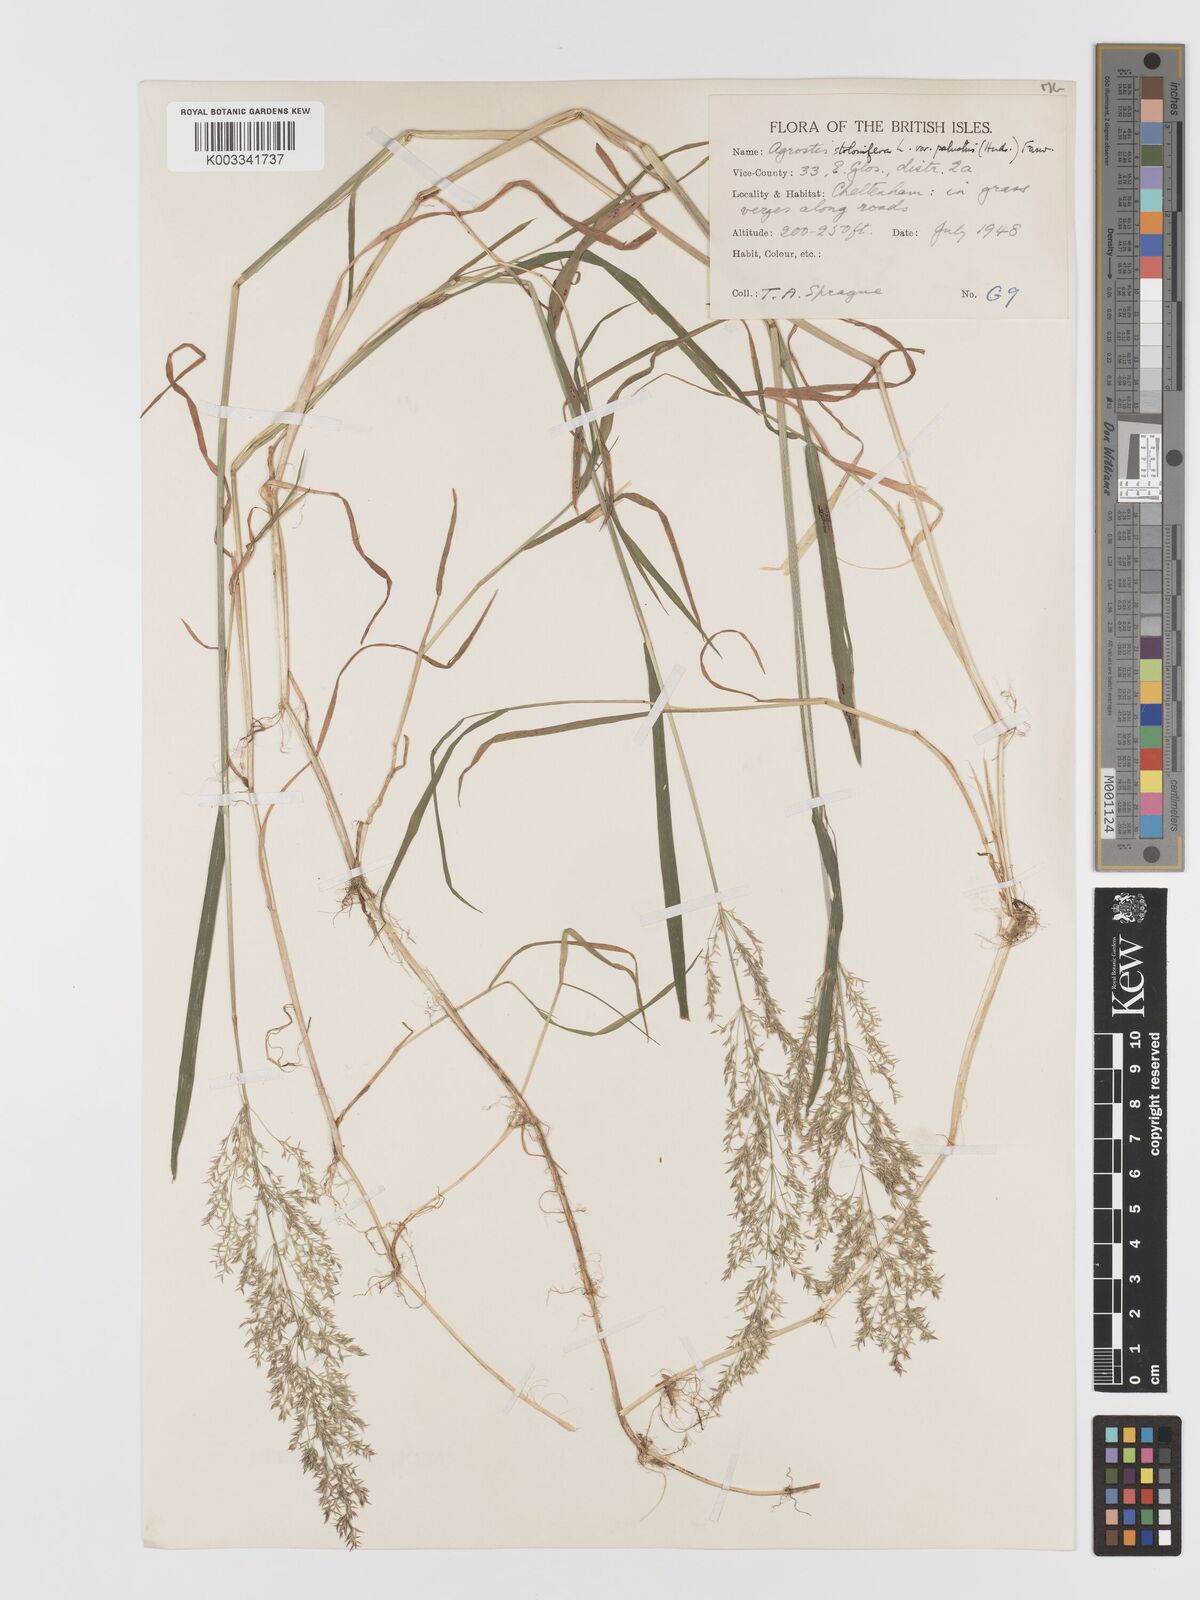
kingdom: Plantae
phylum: Tracheophyta
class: Liliopsida
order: Poales
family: Poaceae
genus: Agrostis
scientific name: Agrostis stolonifera
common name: Creeping bentgrass
